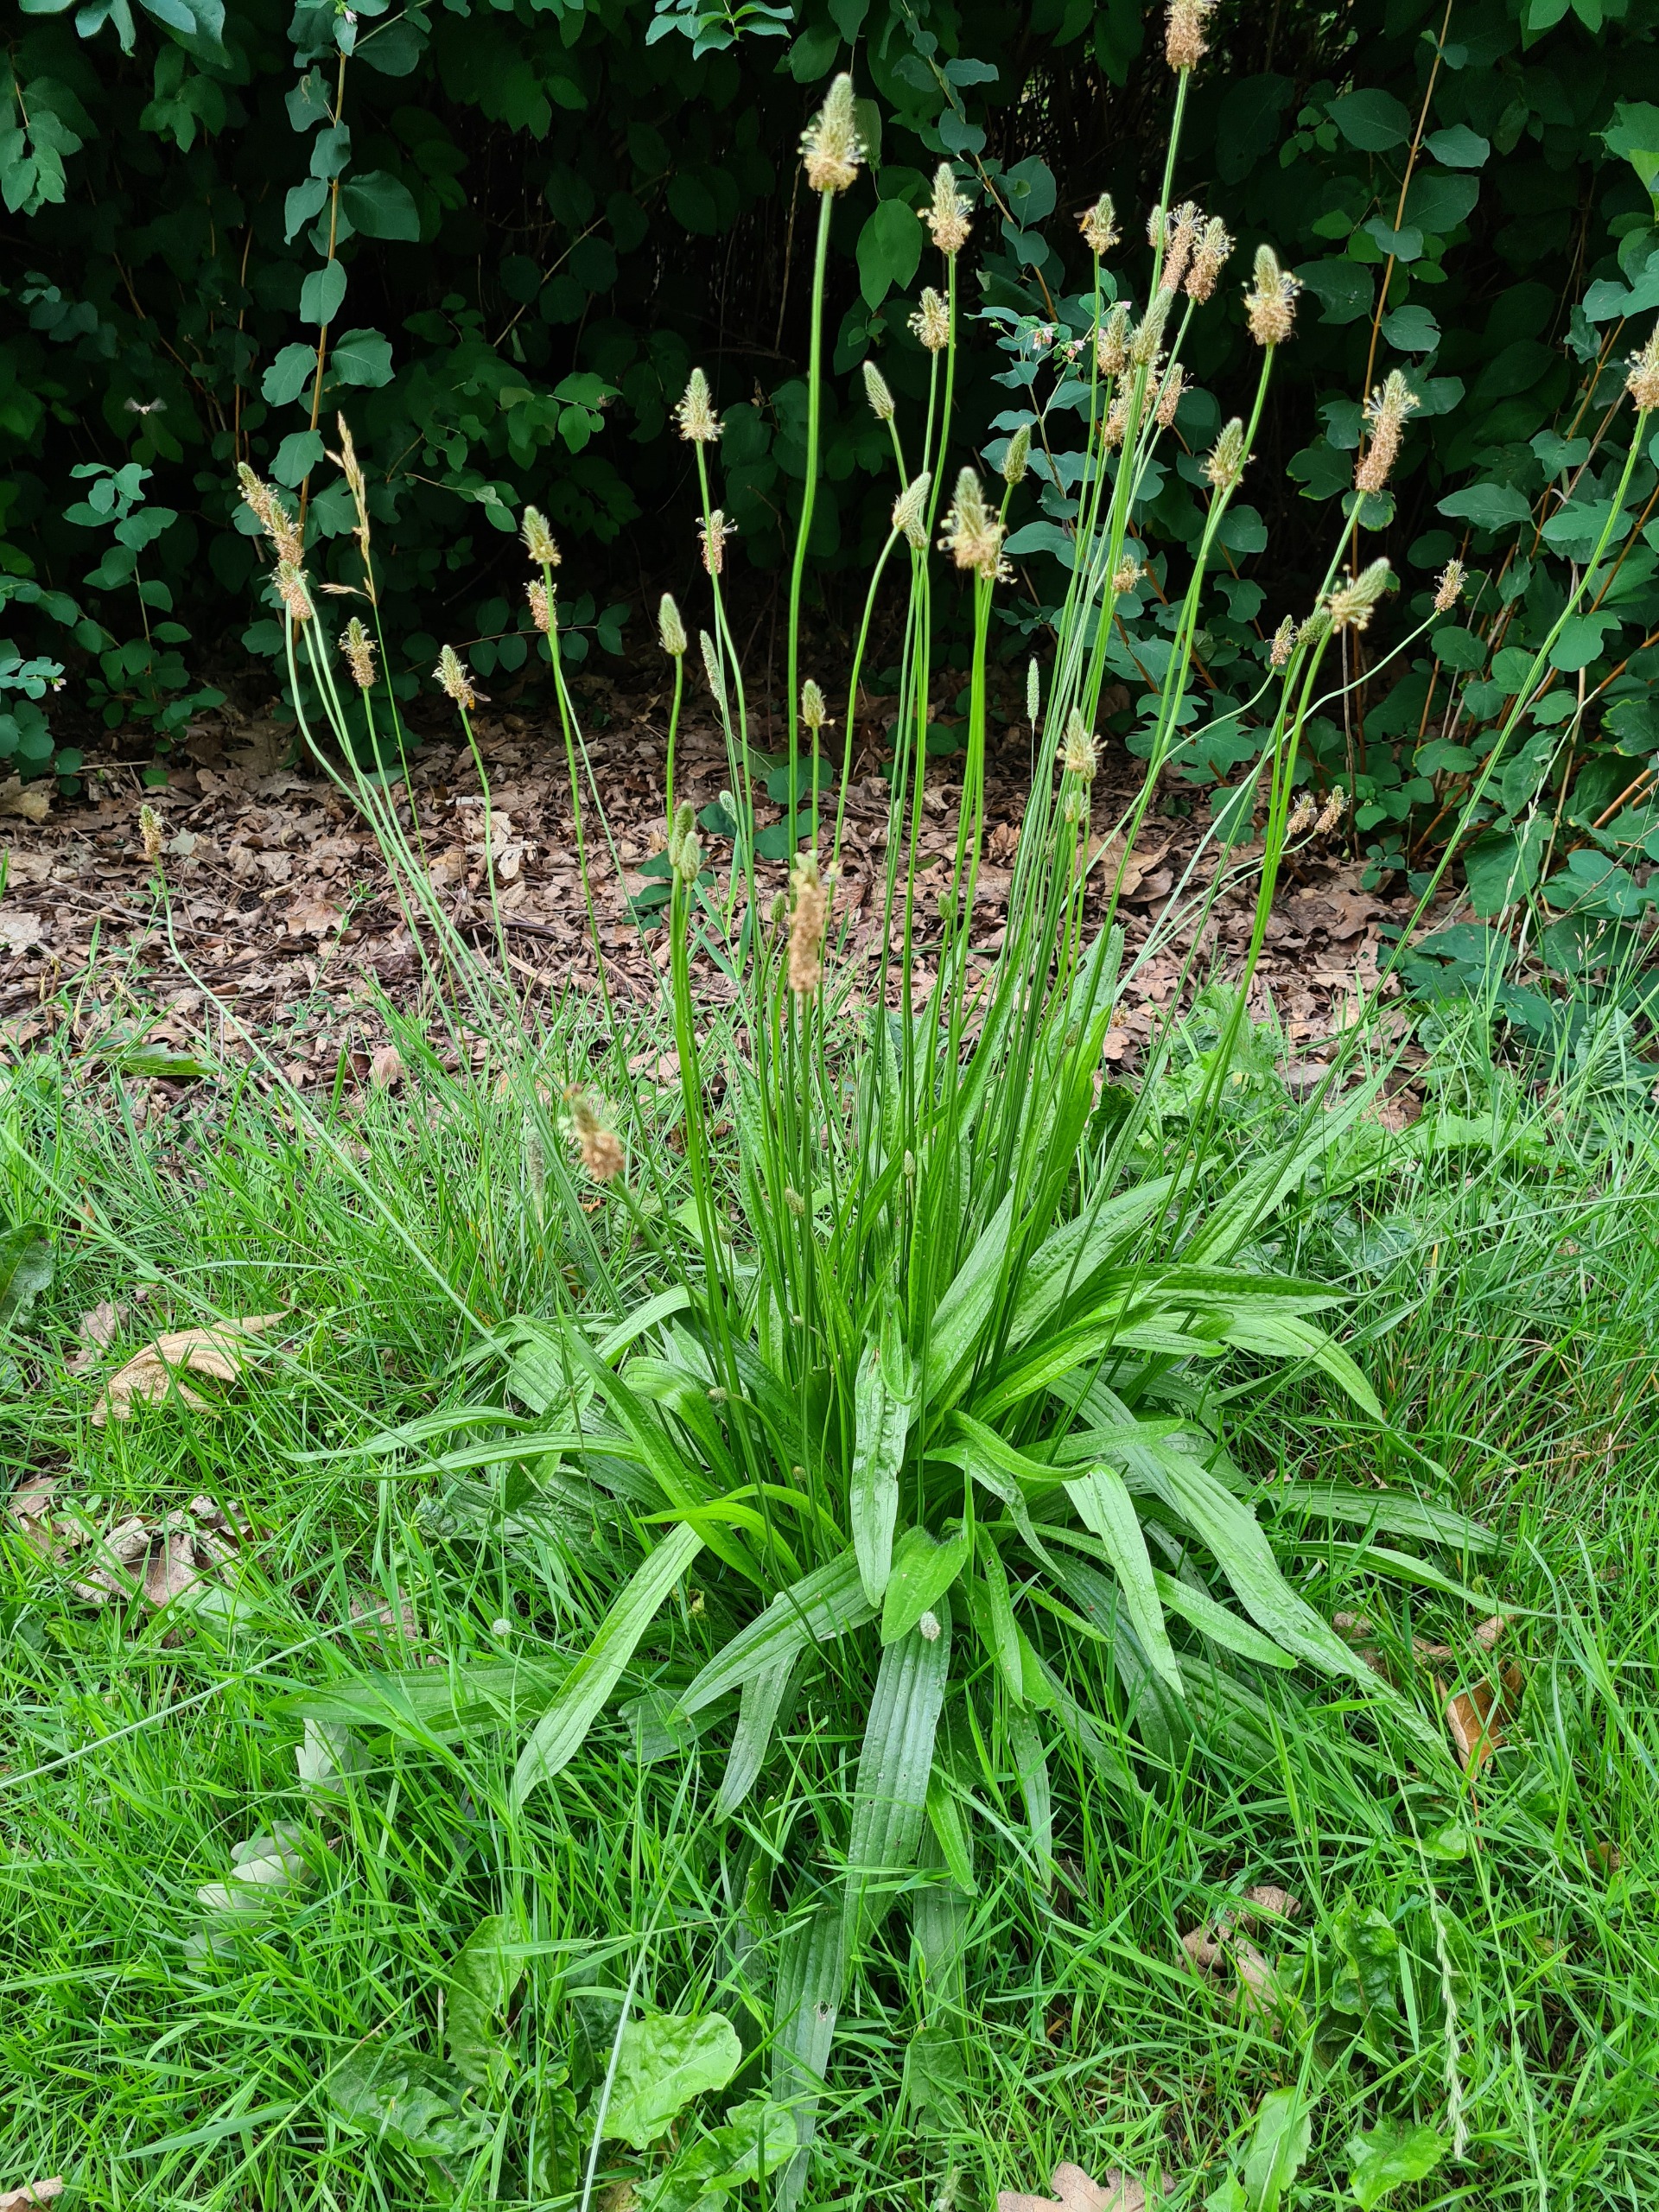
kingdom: Plantae
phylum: Tracheophyta
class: Magnoliopsida
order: Lamiales
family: Plantaginaceae
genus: Plantago
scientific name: Plantago lanceolata
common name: Lancet-vejbred
